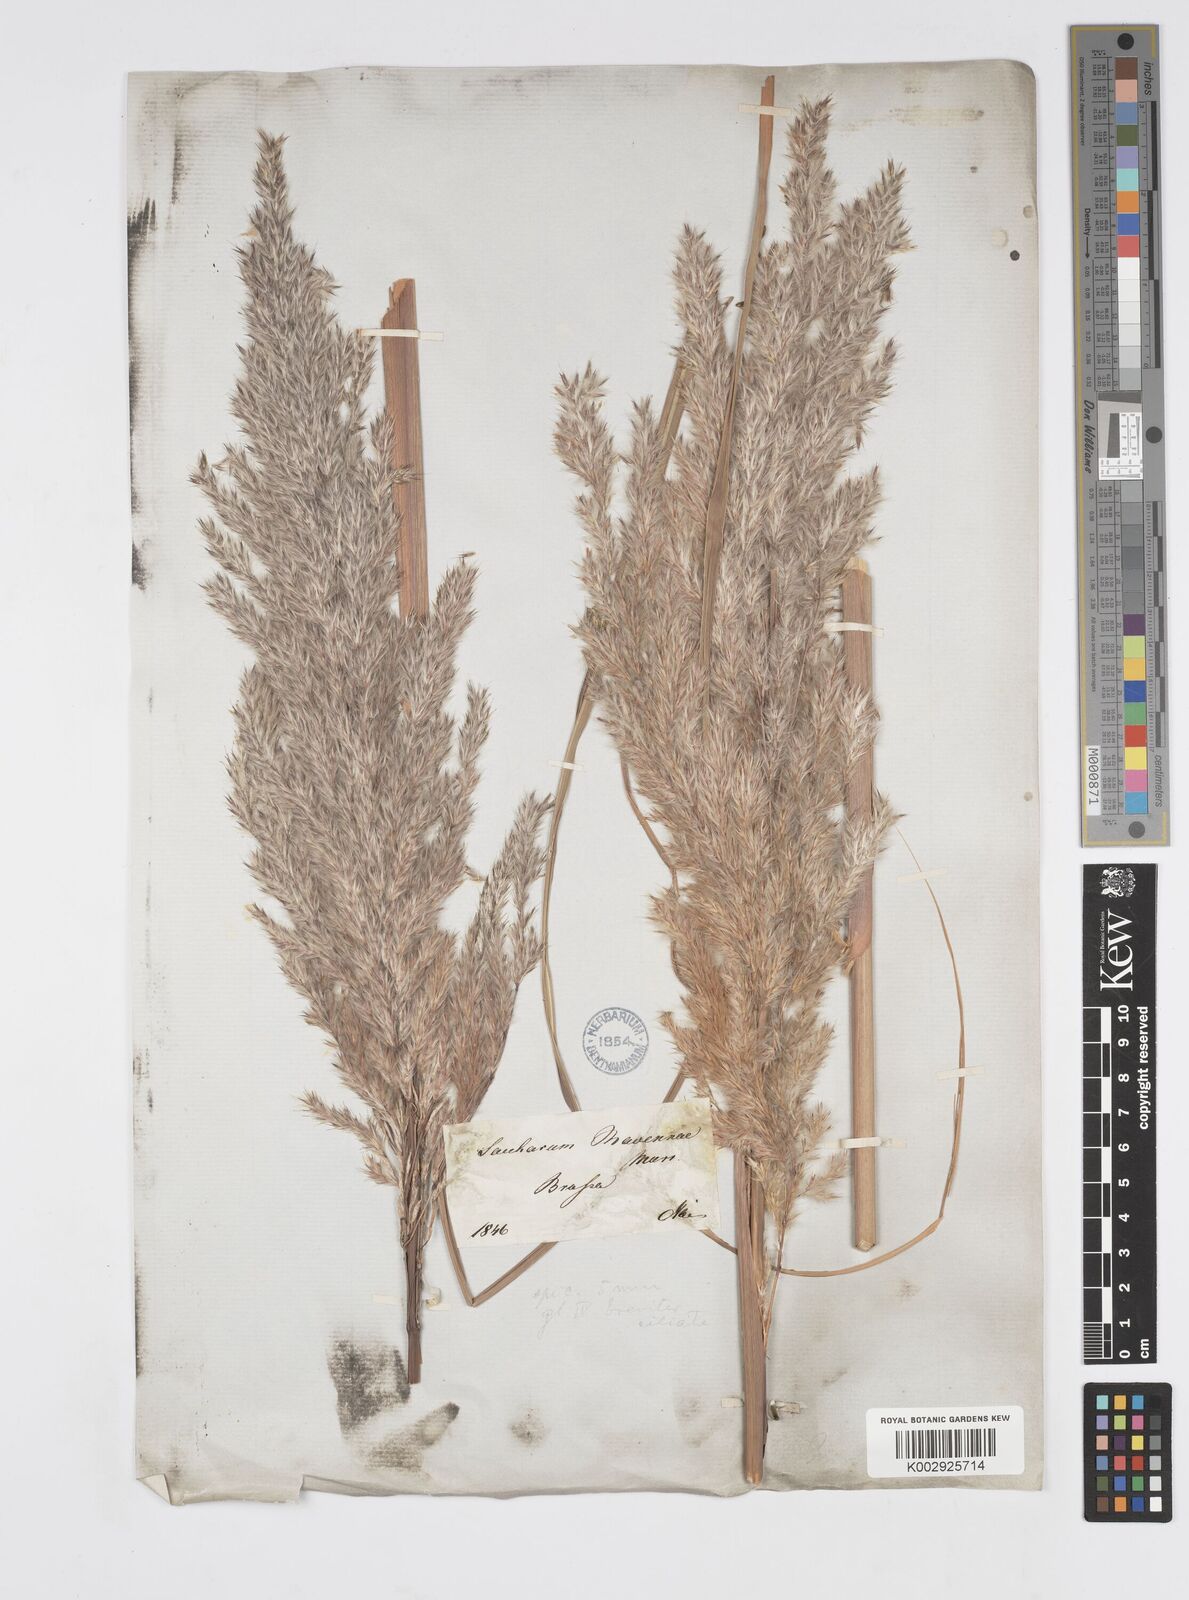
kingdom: Plantae
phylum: Tracheophyta
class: Liliopsida
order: Poales
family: Poaceae
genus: Tripidium
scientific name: Tripidium ravennae
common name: Ravenna grass
